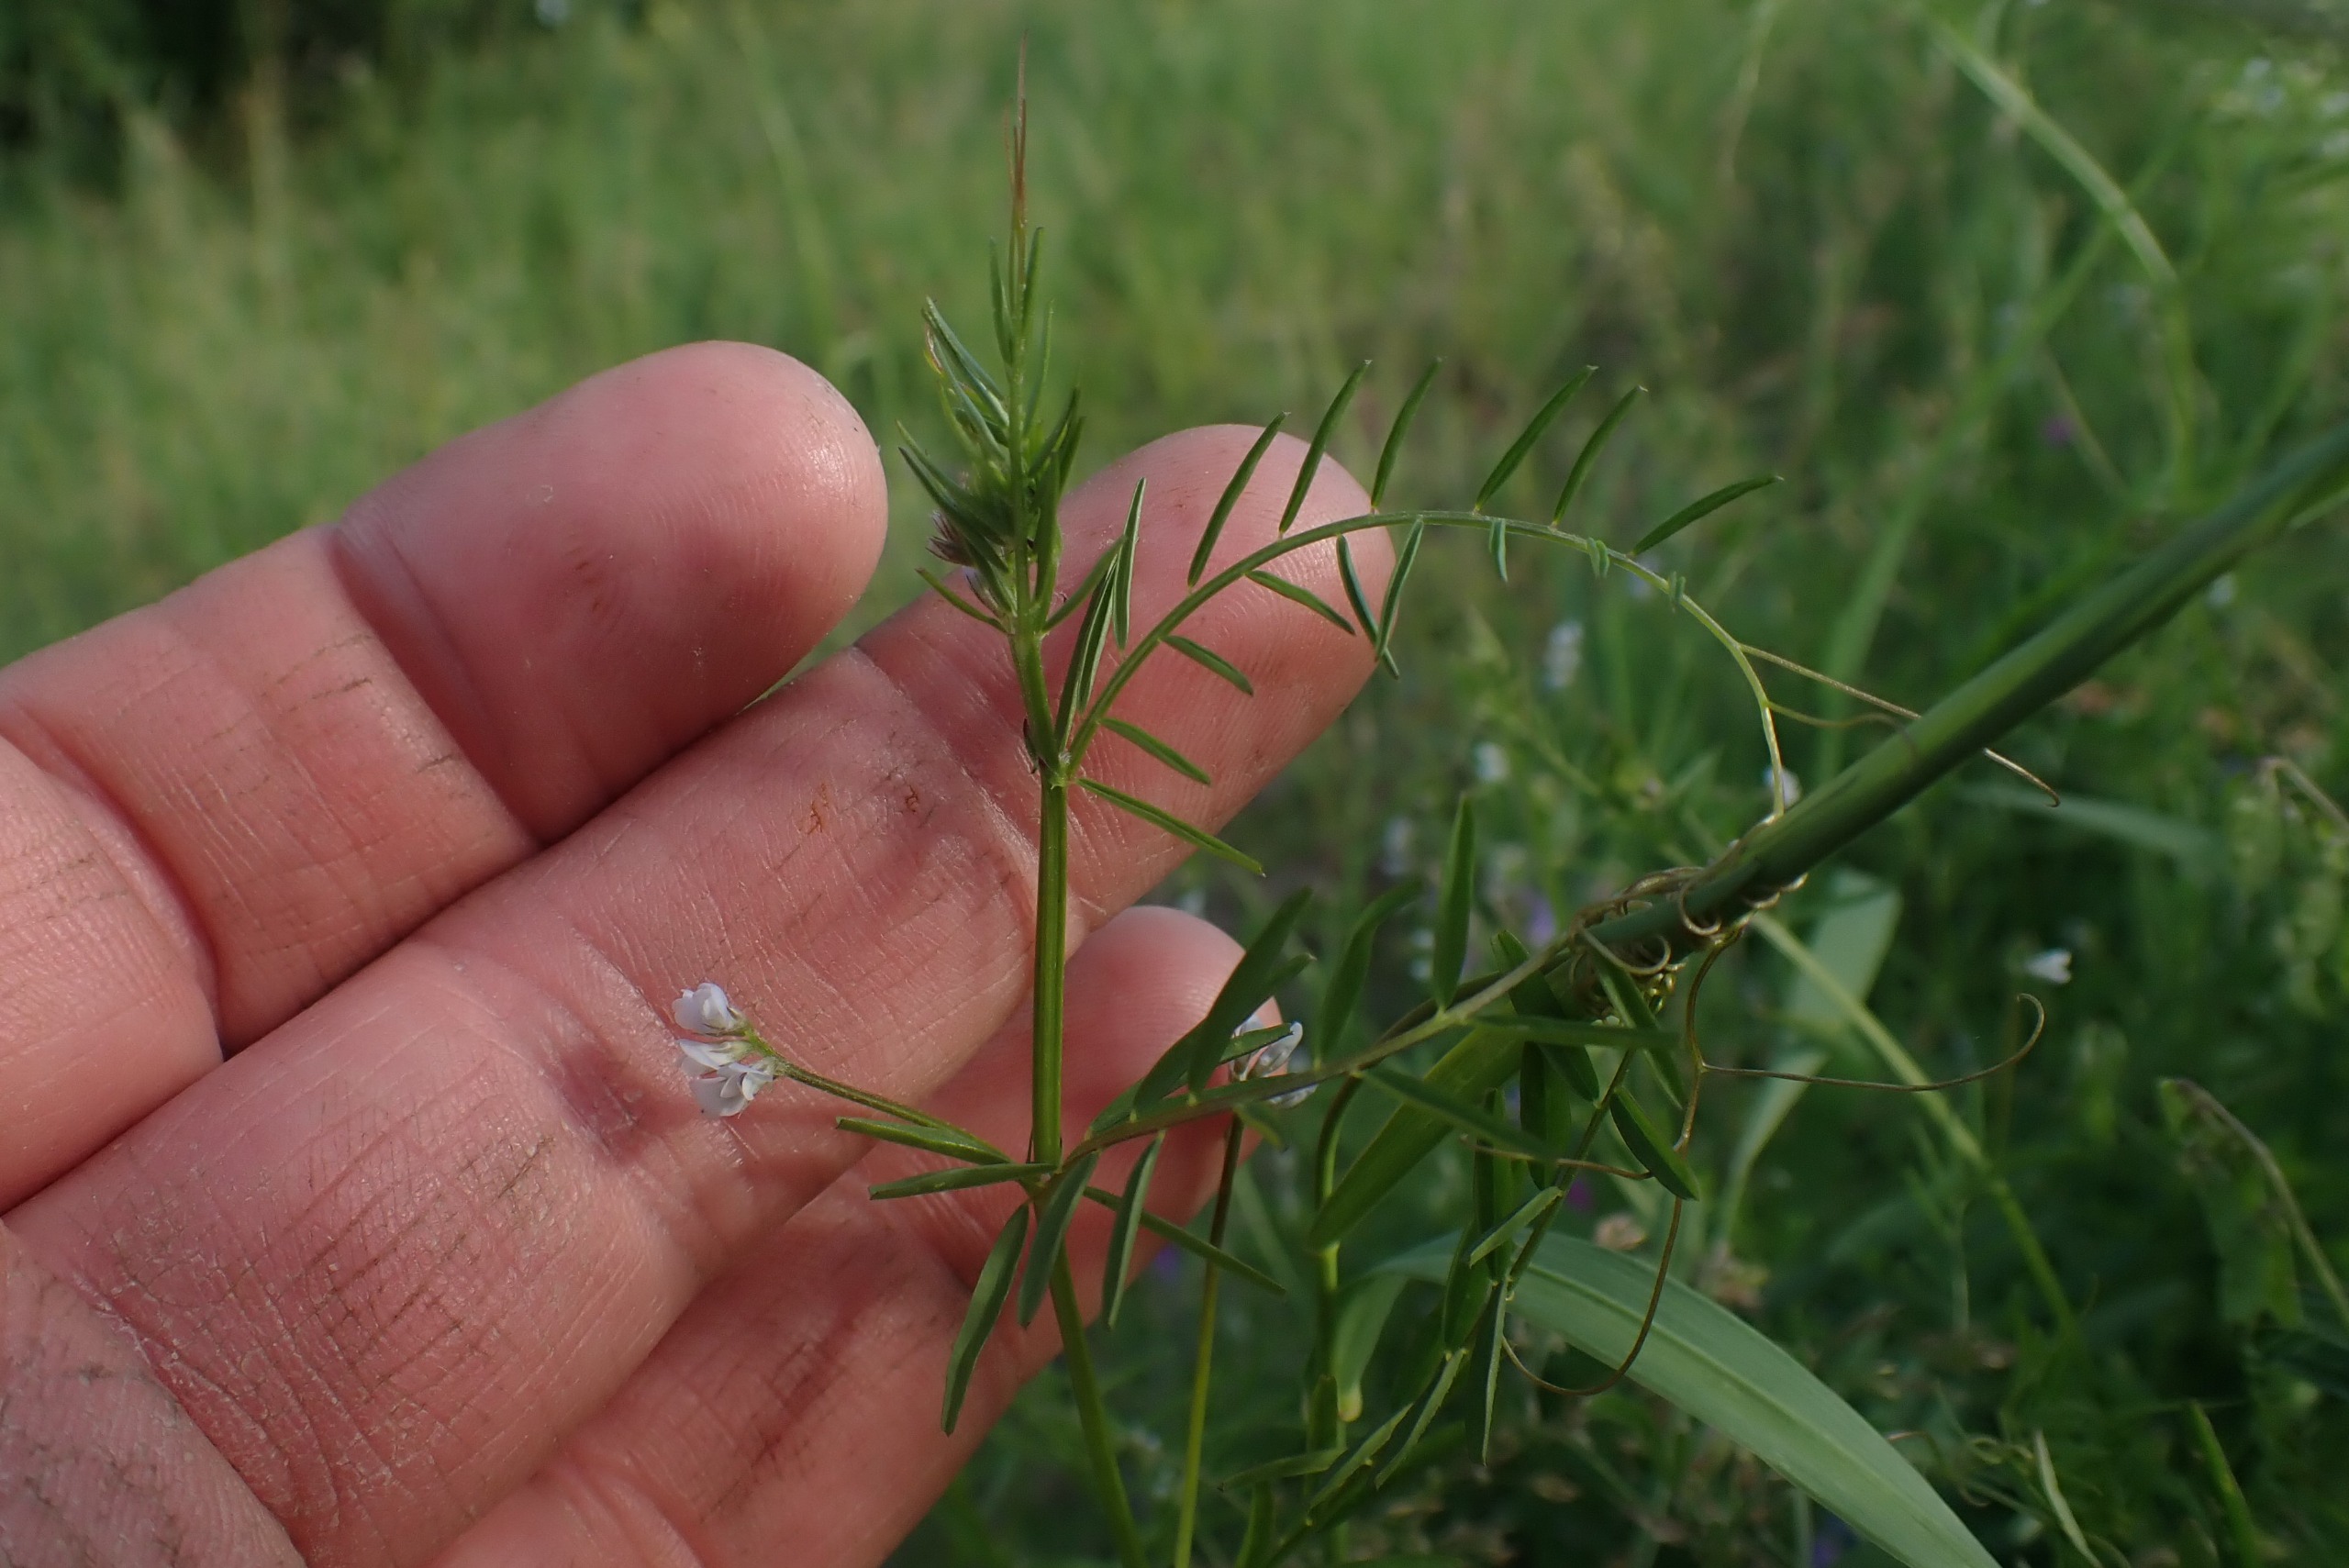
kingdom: Plantae
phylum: Tracheophyta
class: Magnoliopsida
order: Fabales
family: Fabaceae
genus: Vicia
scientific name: Vicia hirsuta
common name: Tofrøet vikke
